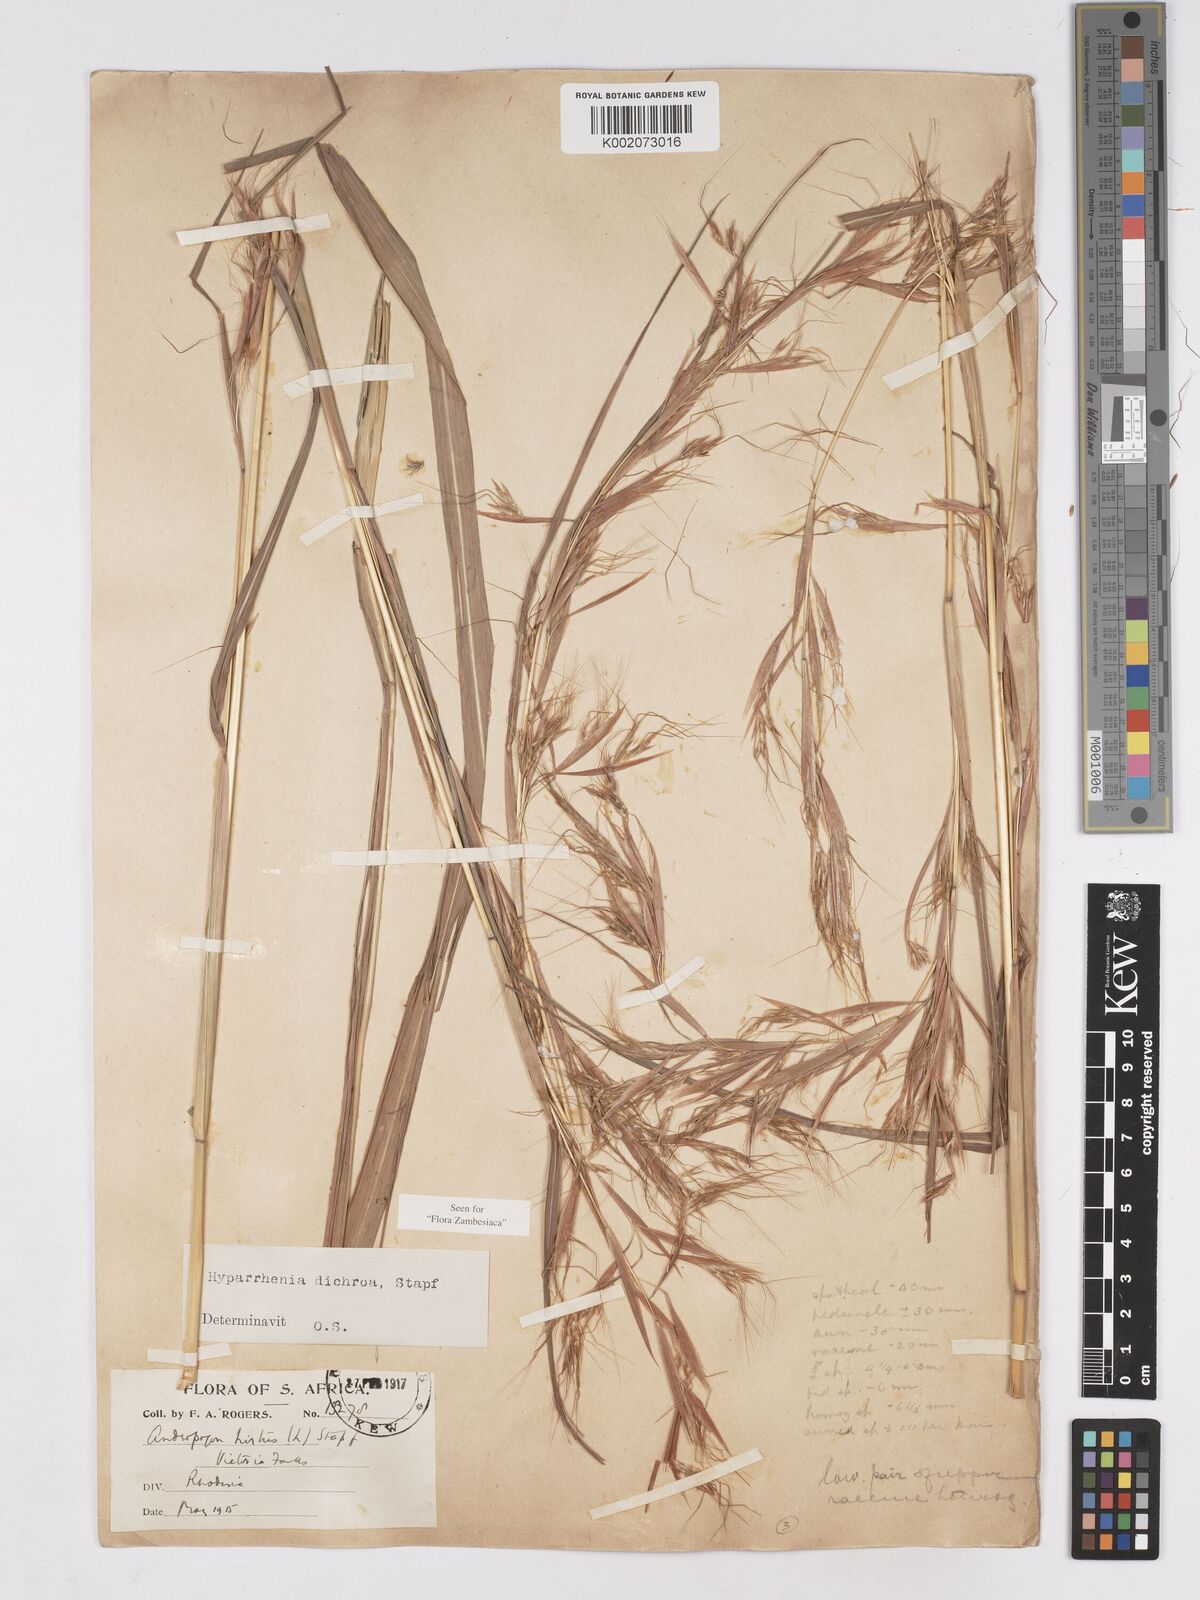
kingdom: Plantae
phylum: Tracheophyta
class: Liliopsida
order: Poales
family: Poaceae
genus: Hyparrhenia
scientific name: Hyparrhenia dichroa
